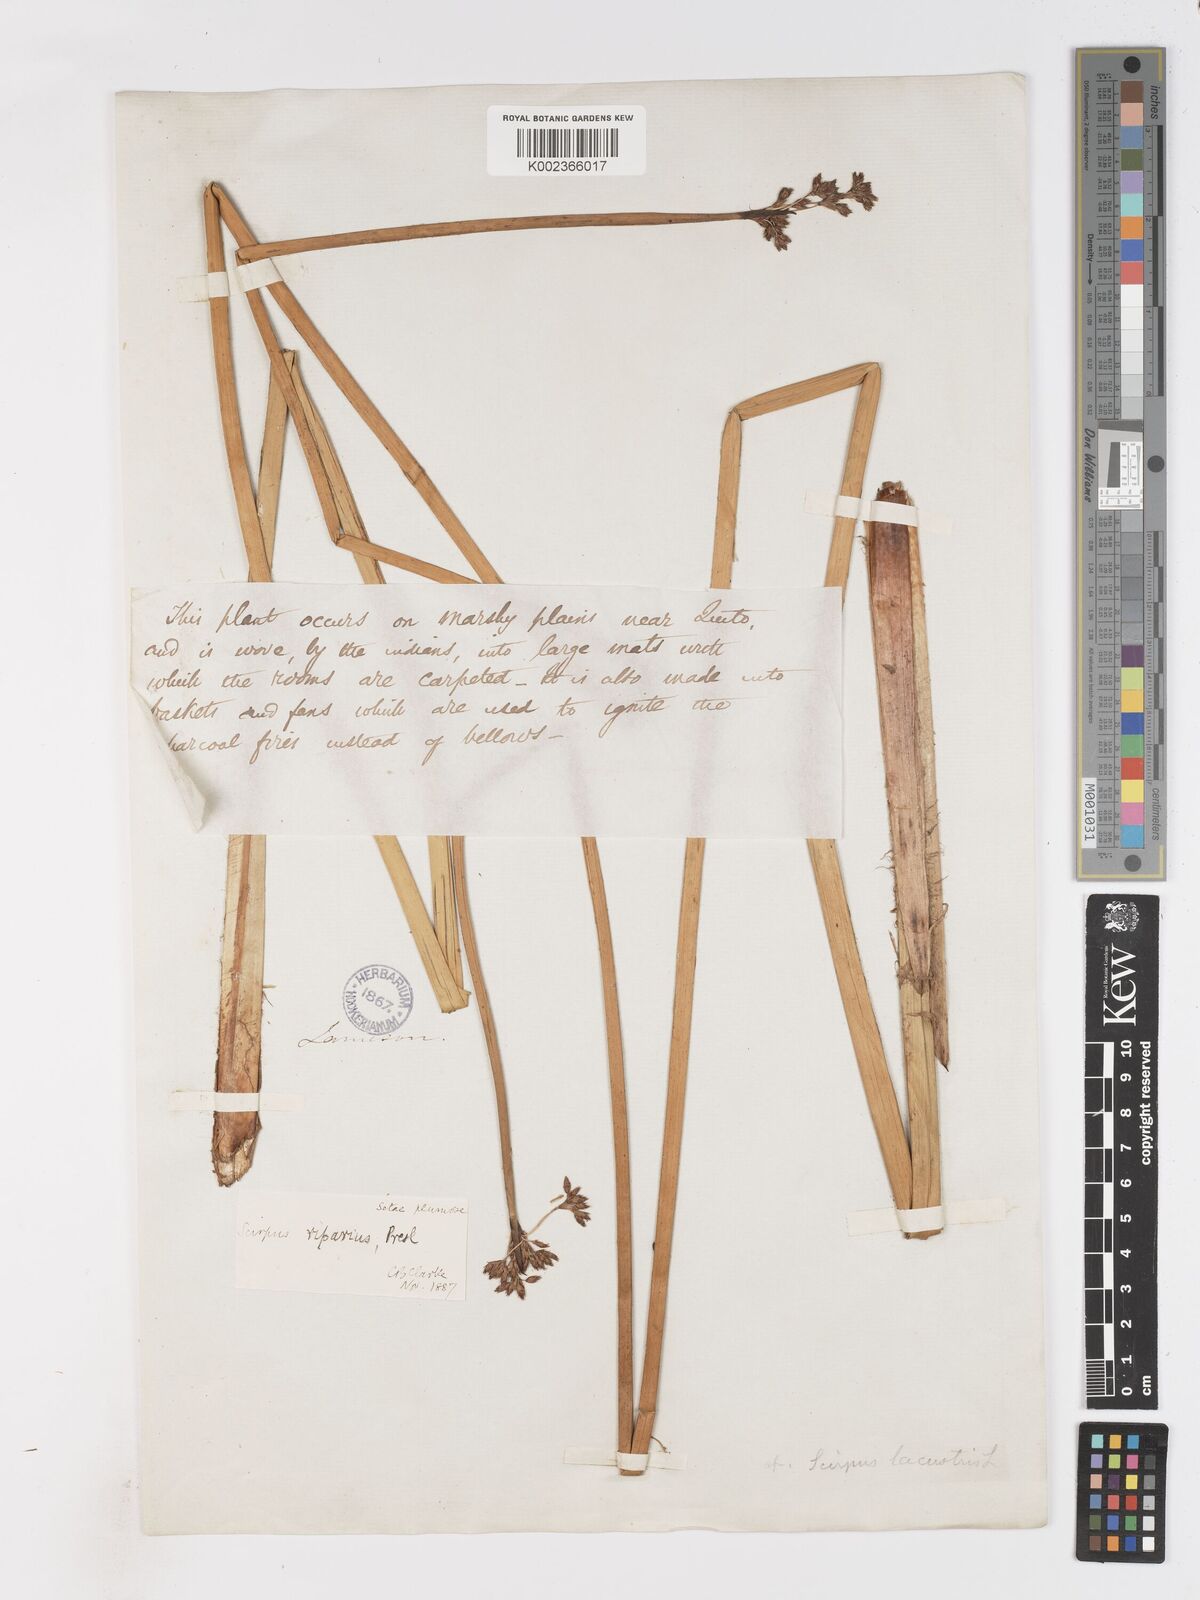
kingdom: Plantae
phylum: Tracheophyta
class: Liliopsida
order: Poales
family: Cyperaceae
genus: Schoenoplectus
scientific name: Schoenoplectus californicus
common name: California bulrush
